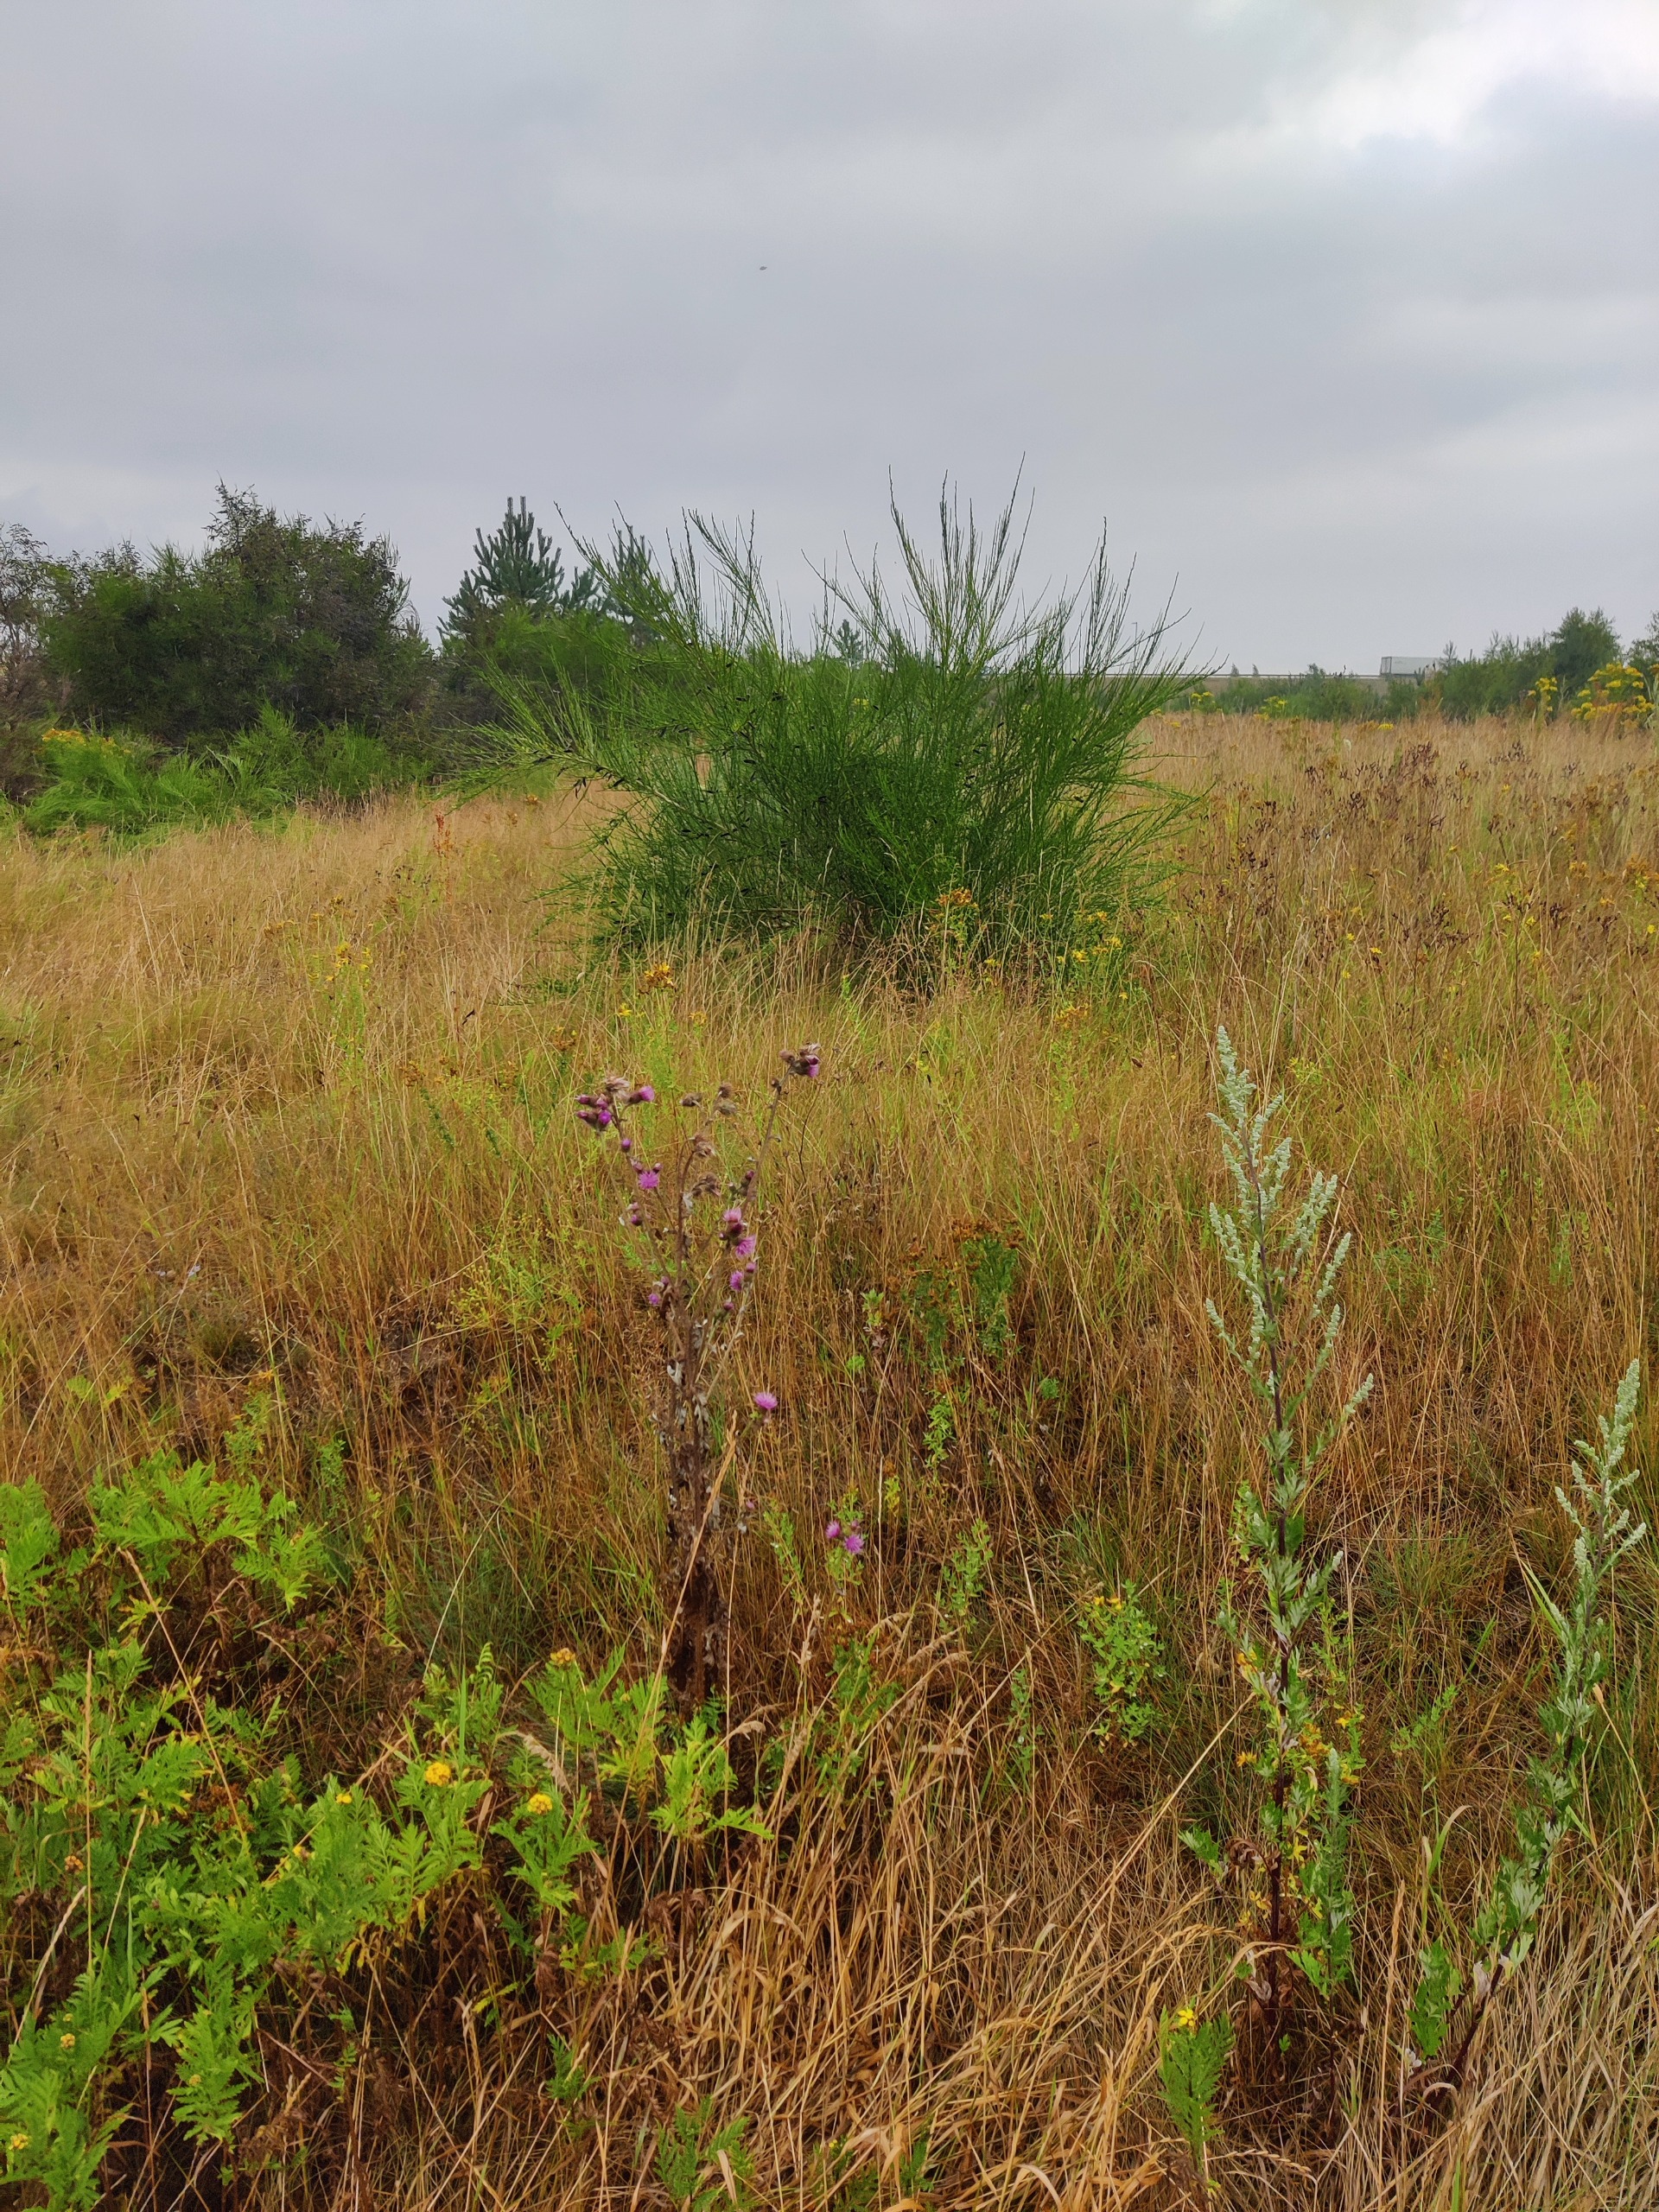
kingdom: Plantae
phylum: Tracheophyta
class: Magnoliopsida
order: Fabales
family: Fabaceae
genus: Cytisus
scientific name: Cytisus scoparius
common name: Almindelig gyvel
